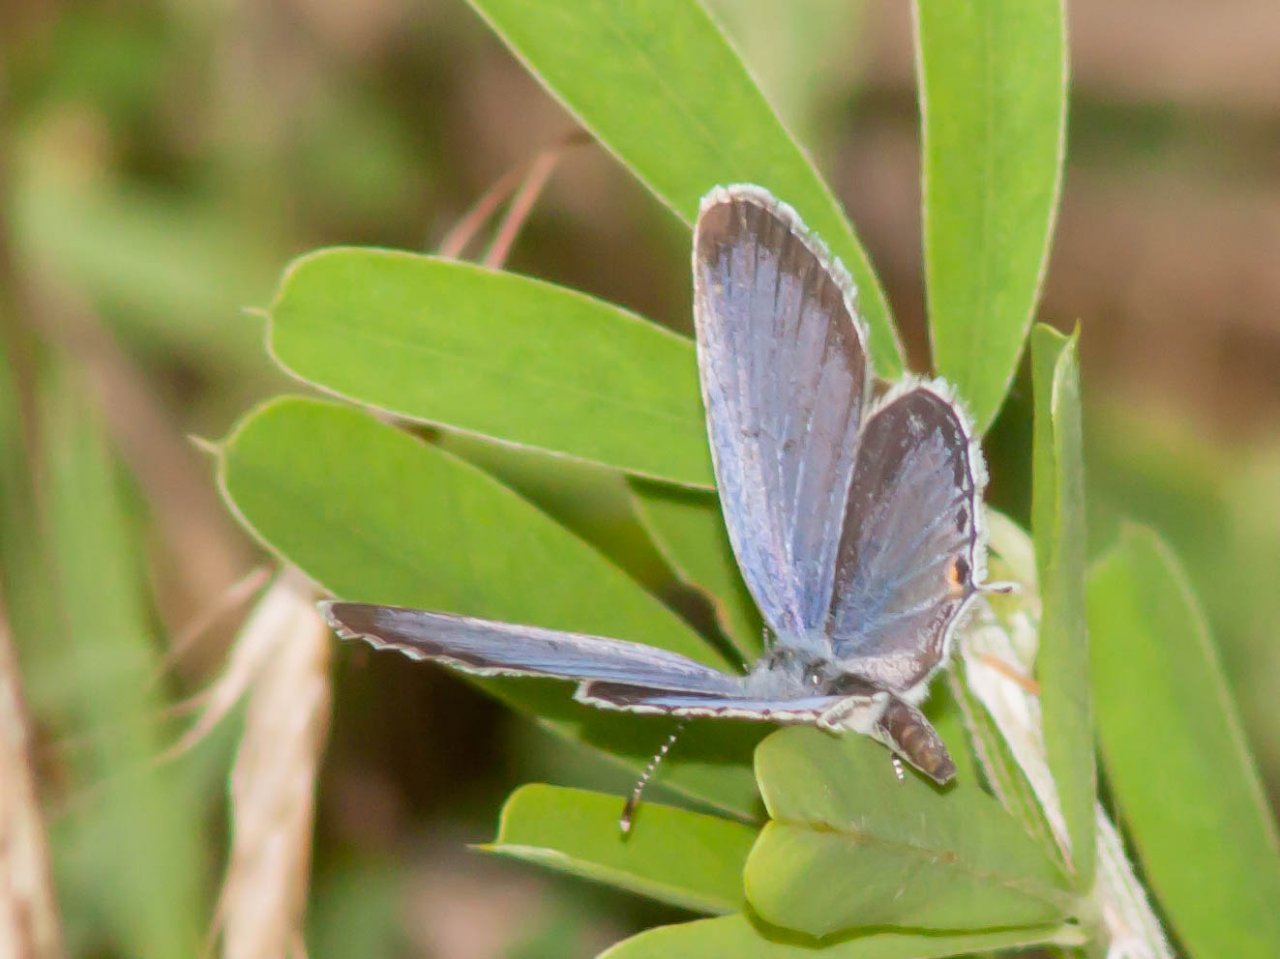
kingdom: Animalia
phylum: Arthropoda
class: Insecta
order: Lepidoptera
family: Lycaenidae
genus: Elkalyce
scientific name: Elkalyce comyntas
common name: Eastern Tailed-Blue
